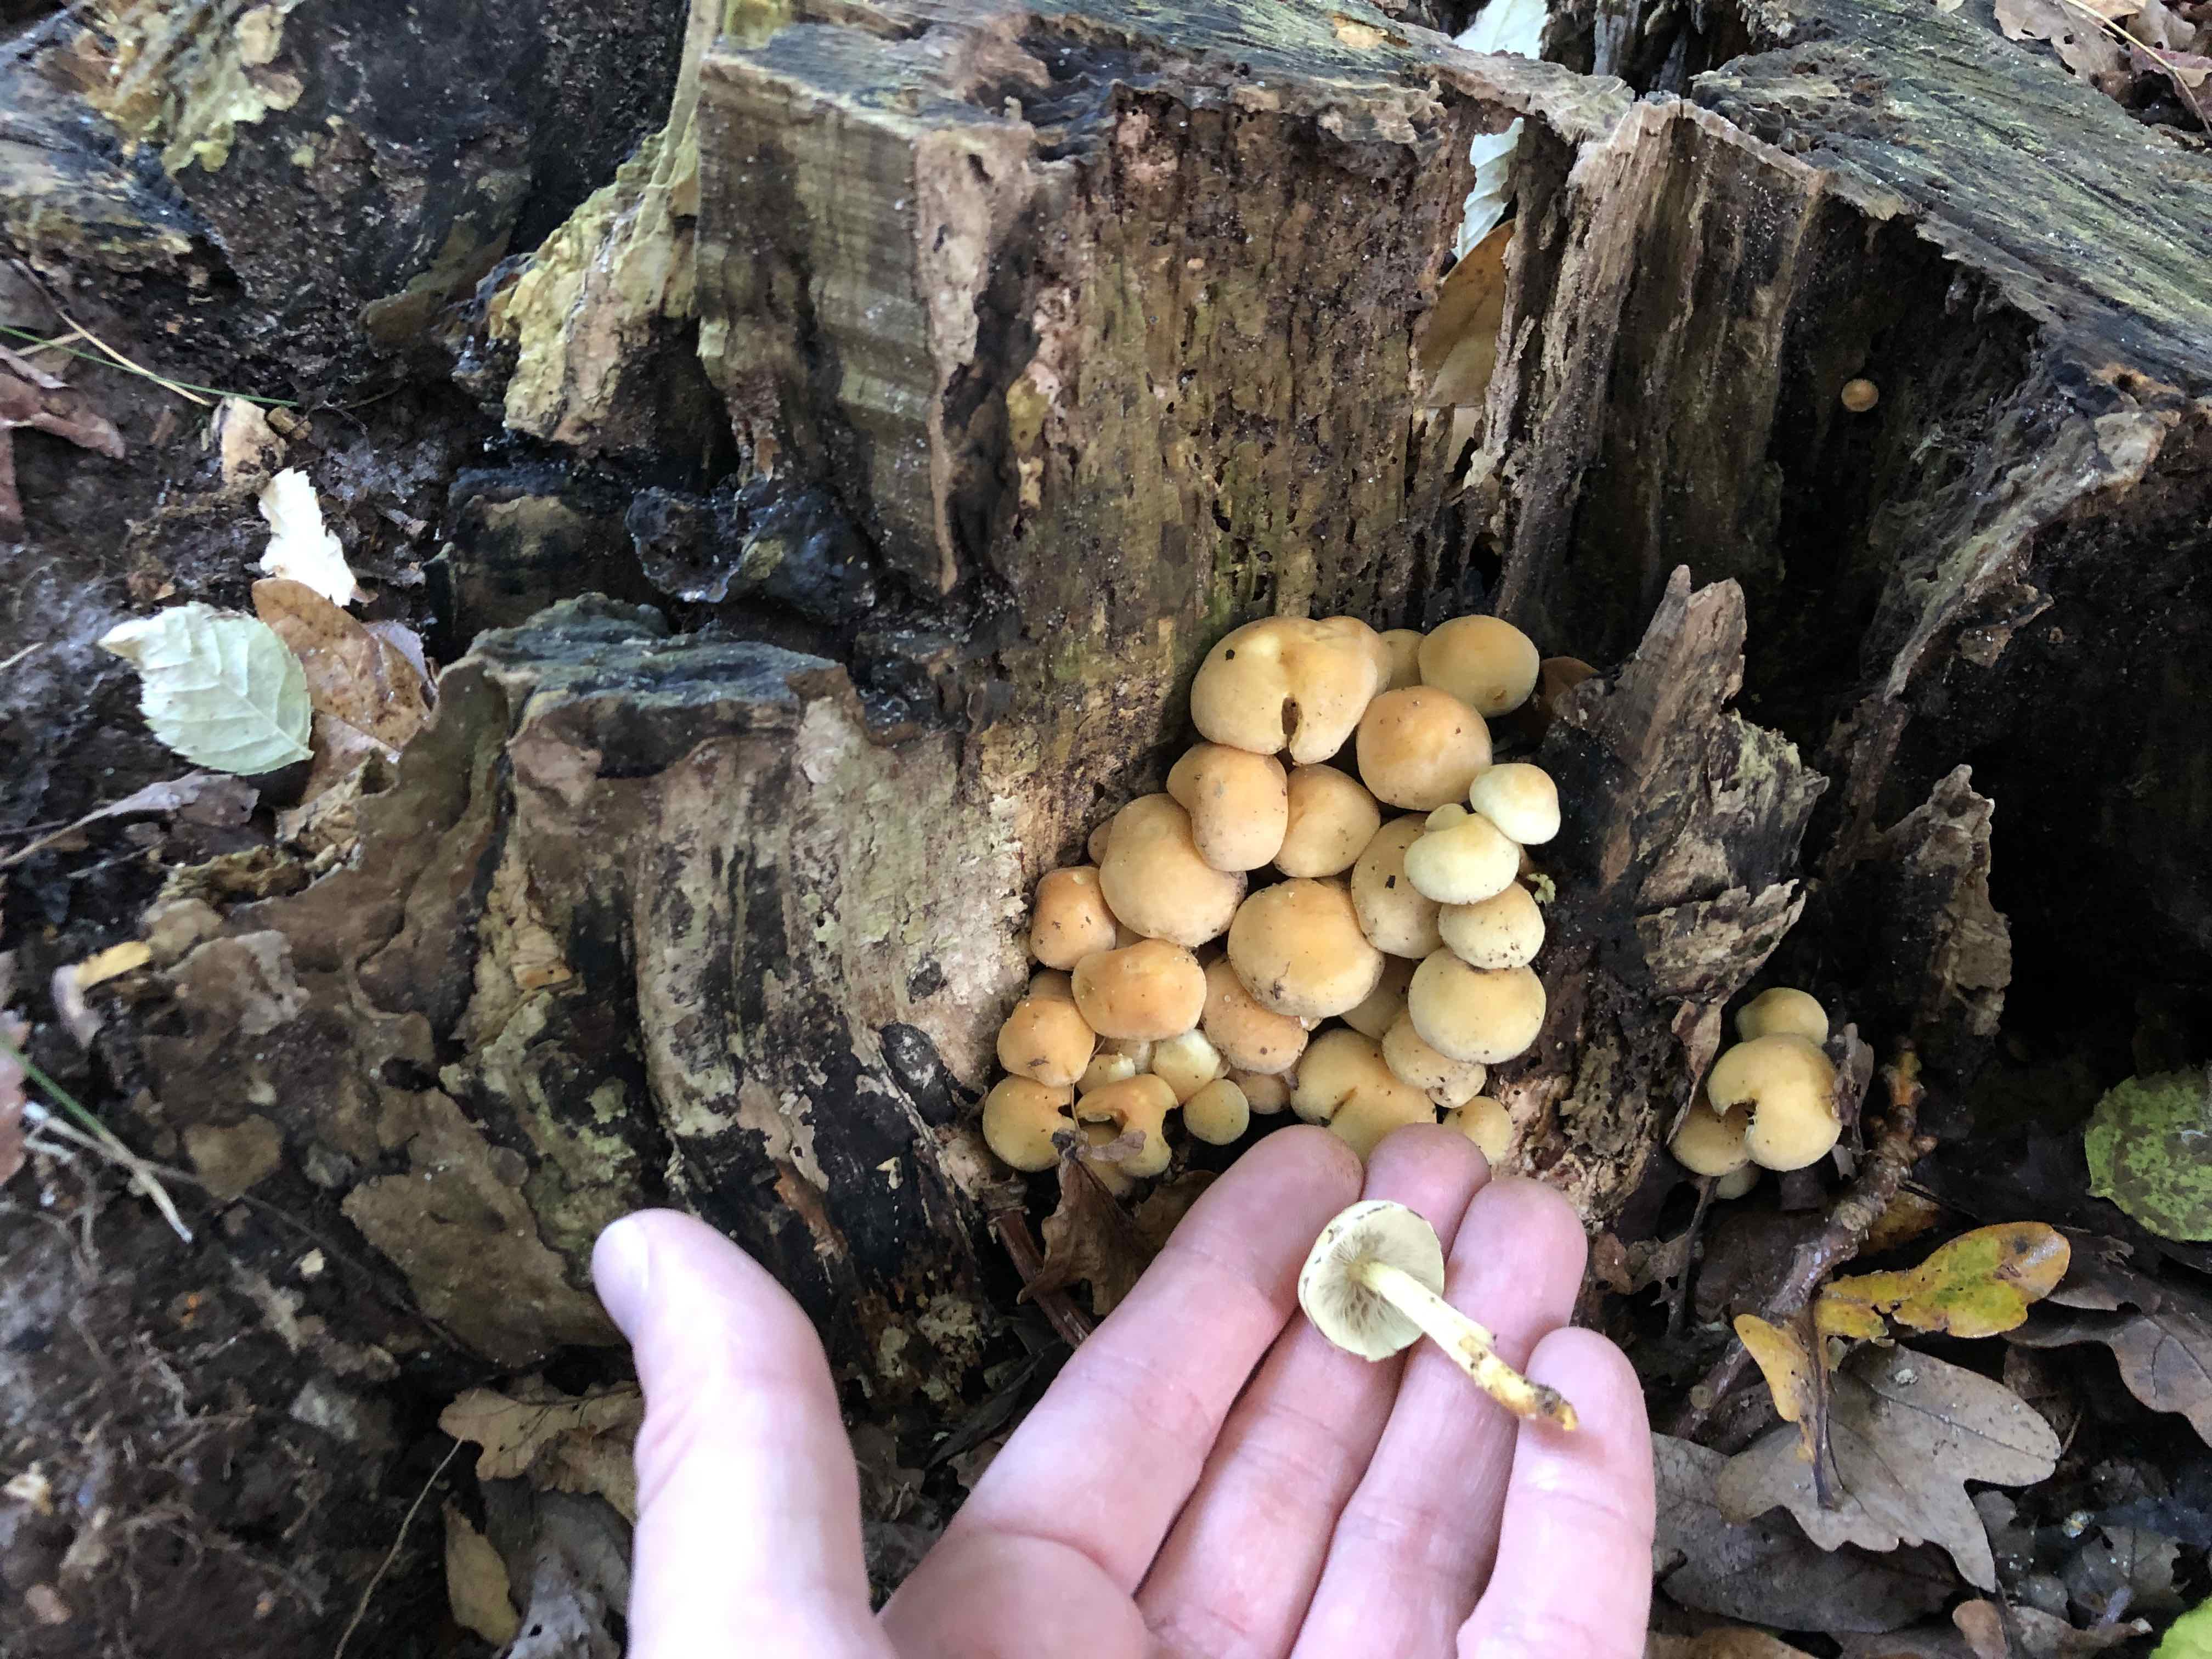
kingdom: Fungi
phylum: Basidiomycota
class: Agaricomycetes
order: Agaricales
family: Strophariaceae
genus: Hypholoma
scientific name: Hypholoma fasciculare
